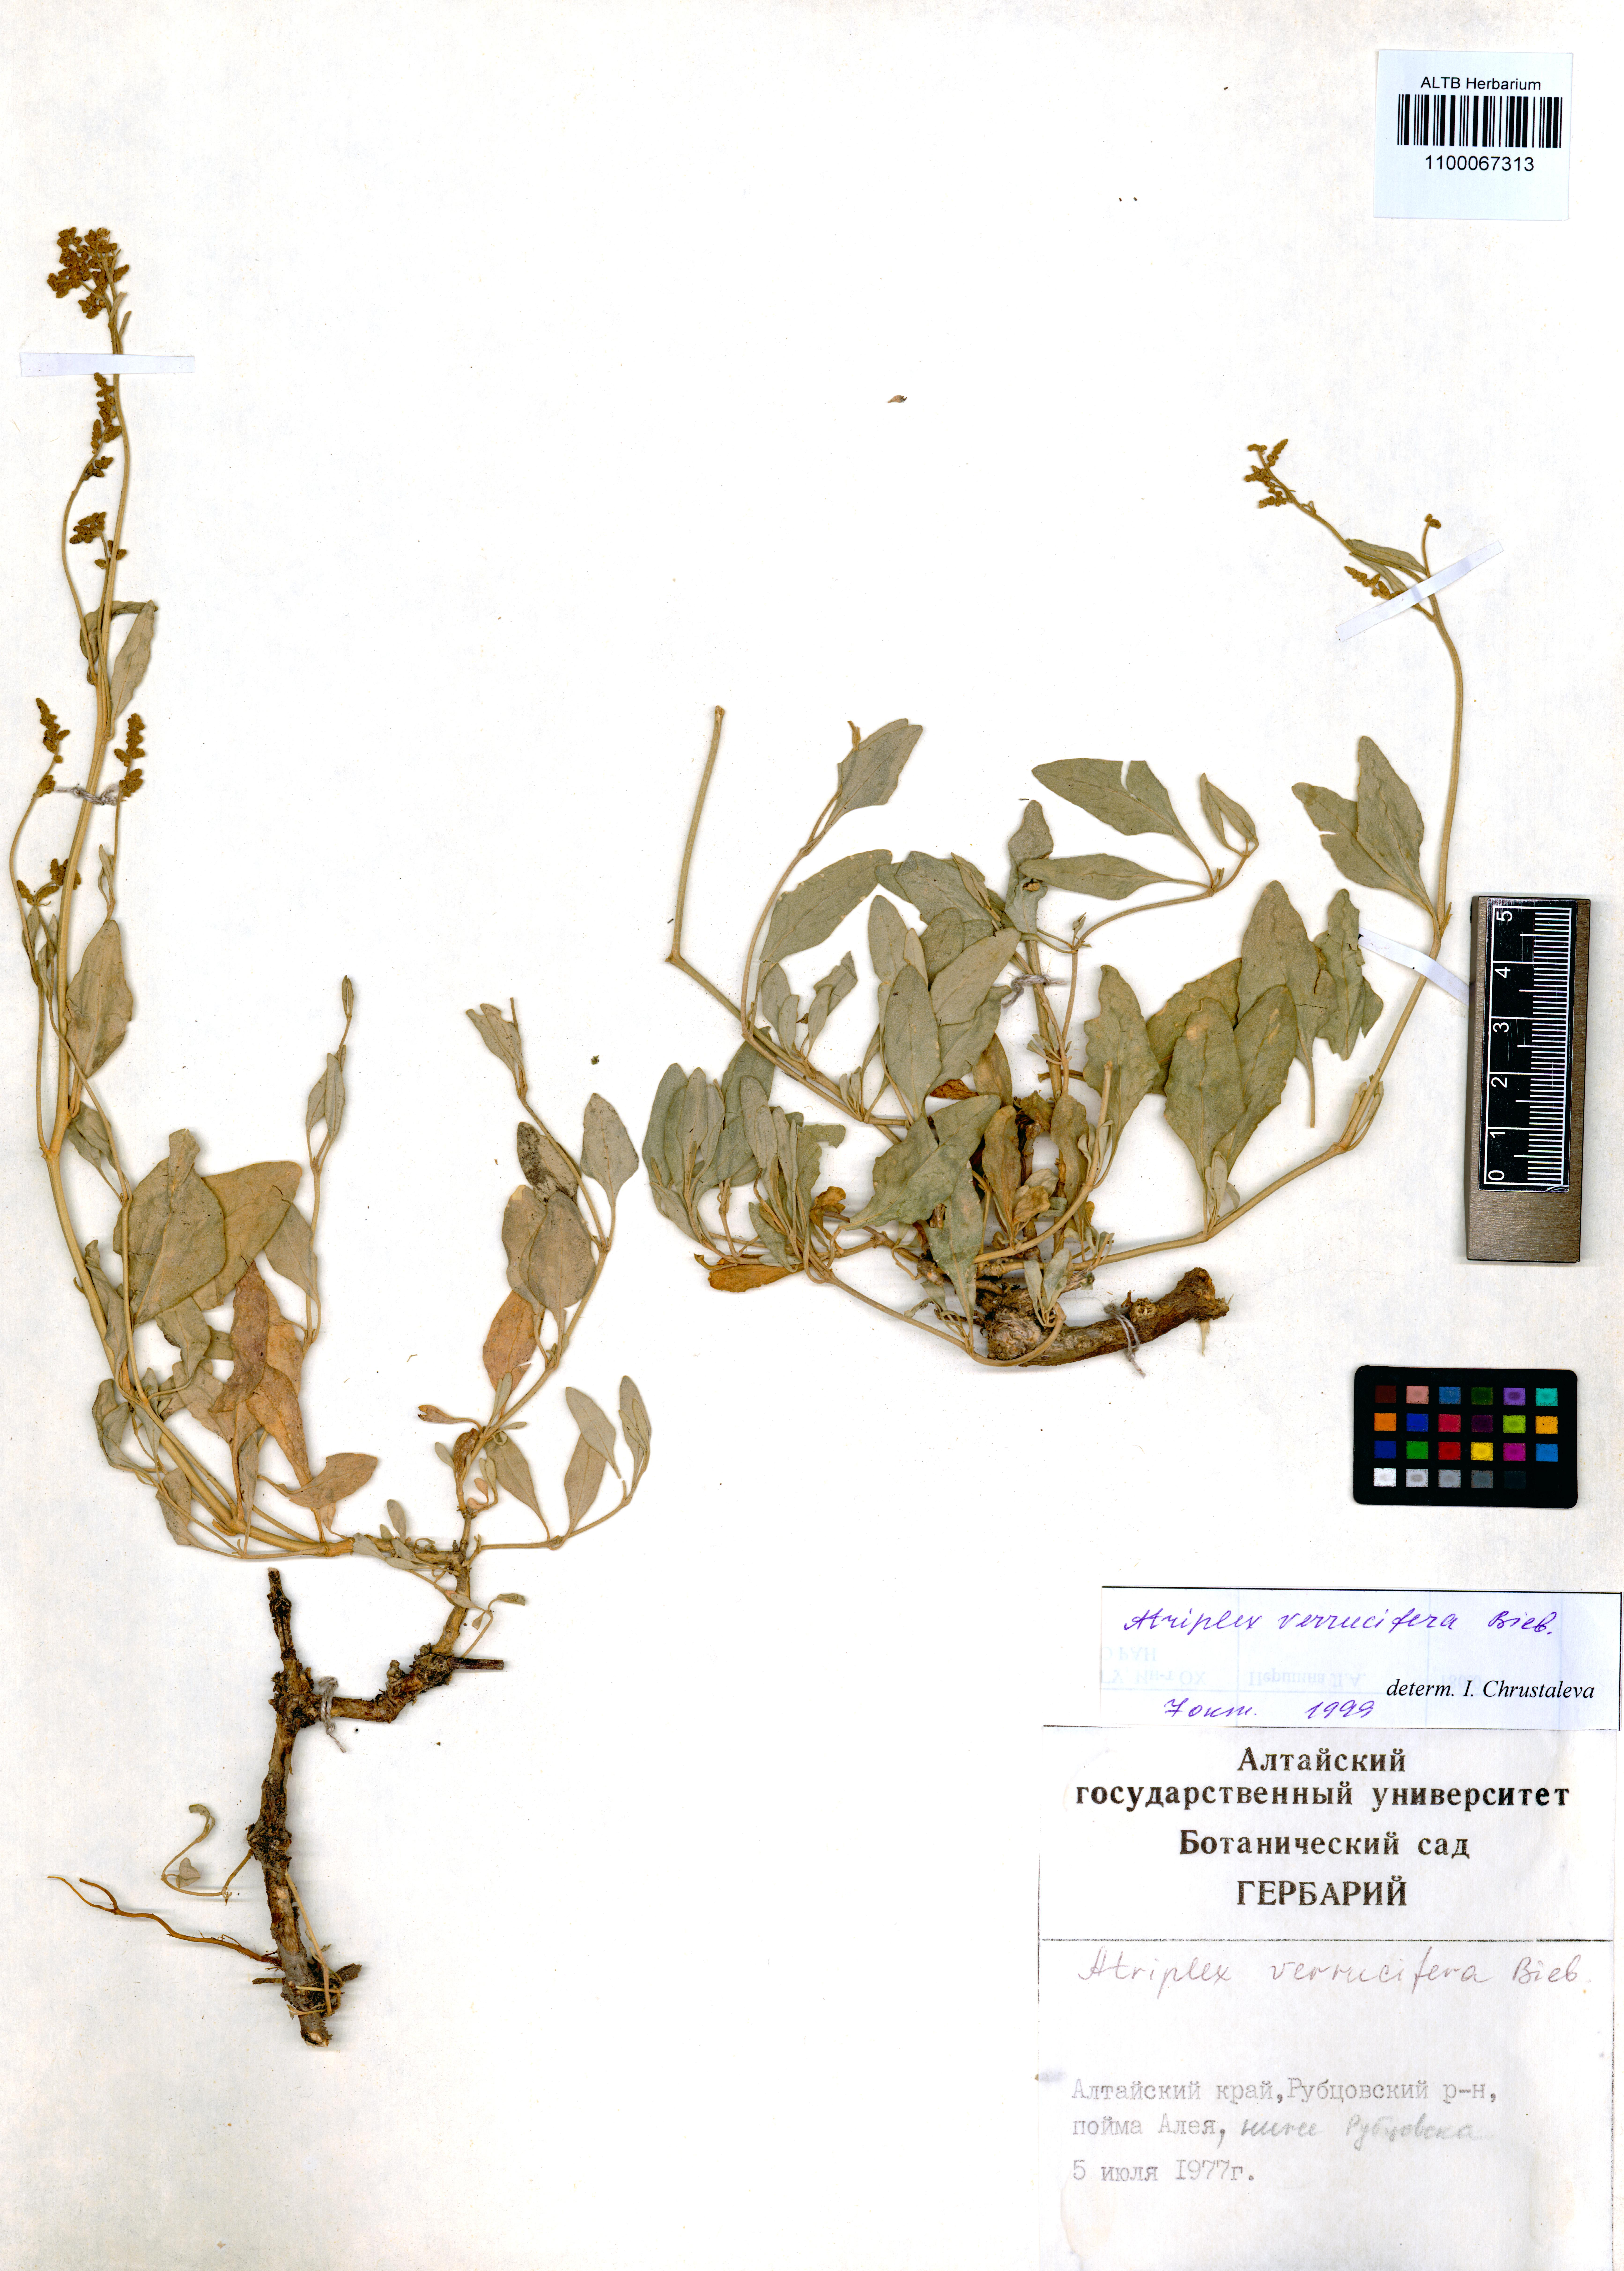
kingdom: Plantae
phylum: Tracheophyta
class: Magnoliopsida
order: Caryophyllales
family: Amaranthaceae
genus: Halimione
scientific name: Halimione verrucifera
